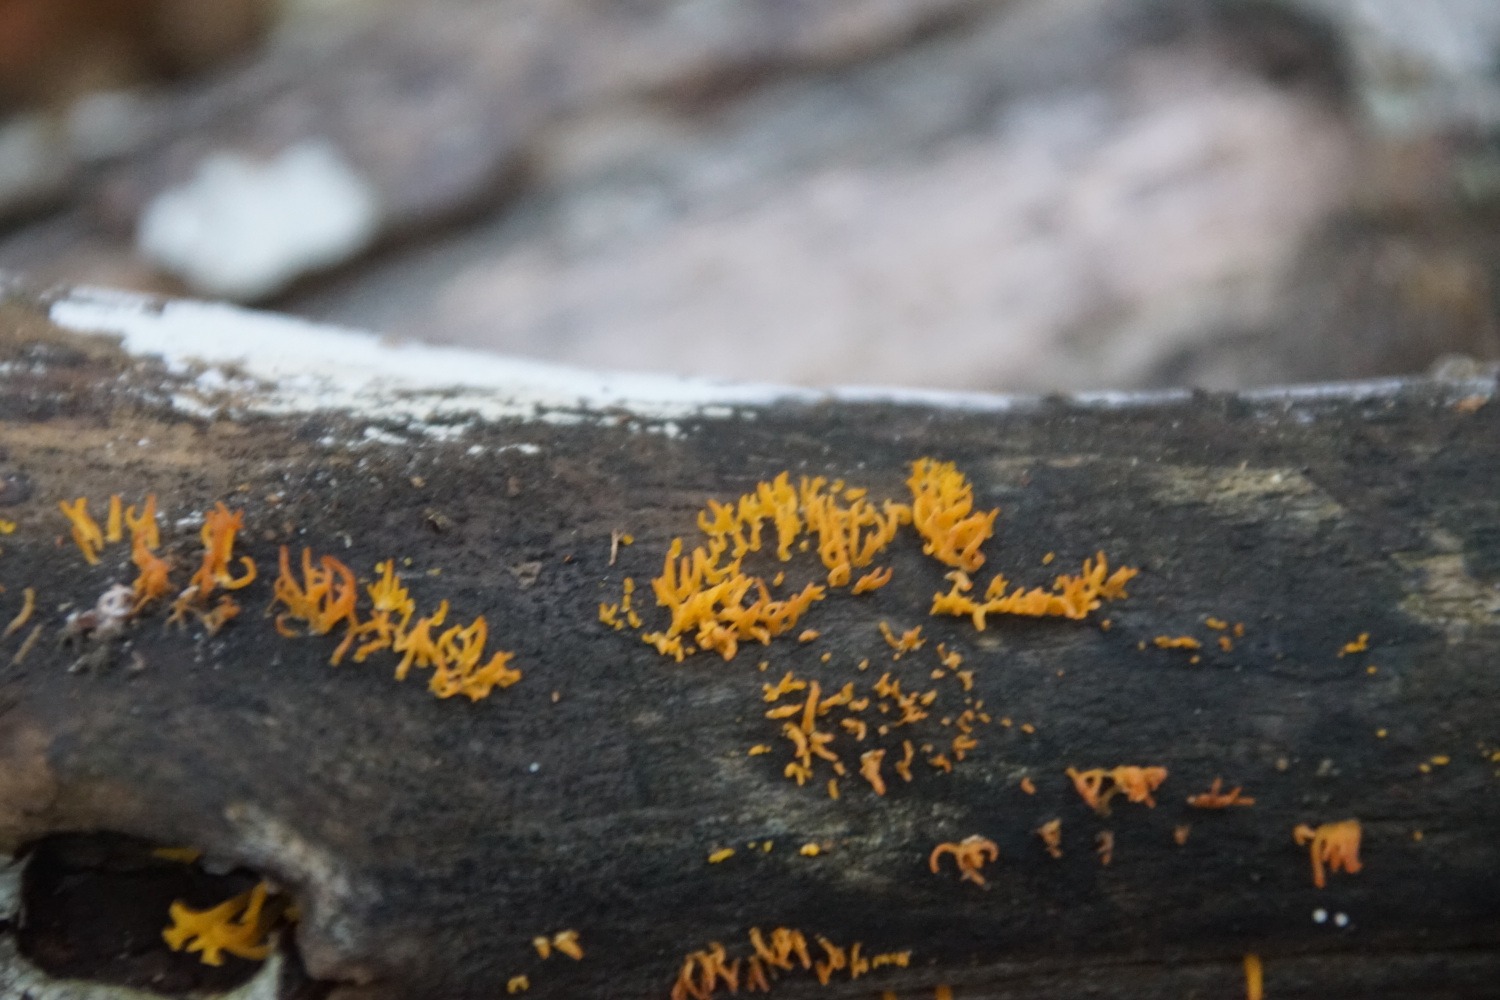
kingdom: Fungi
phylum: Basidiomycota
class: Dacrymycetes
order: Dacrymycetales
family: Dacrymycetaceae
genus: Calocera
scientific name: Calocera cornea
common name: liden guldgaffel
